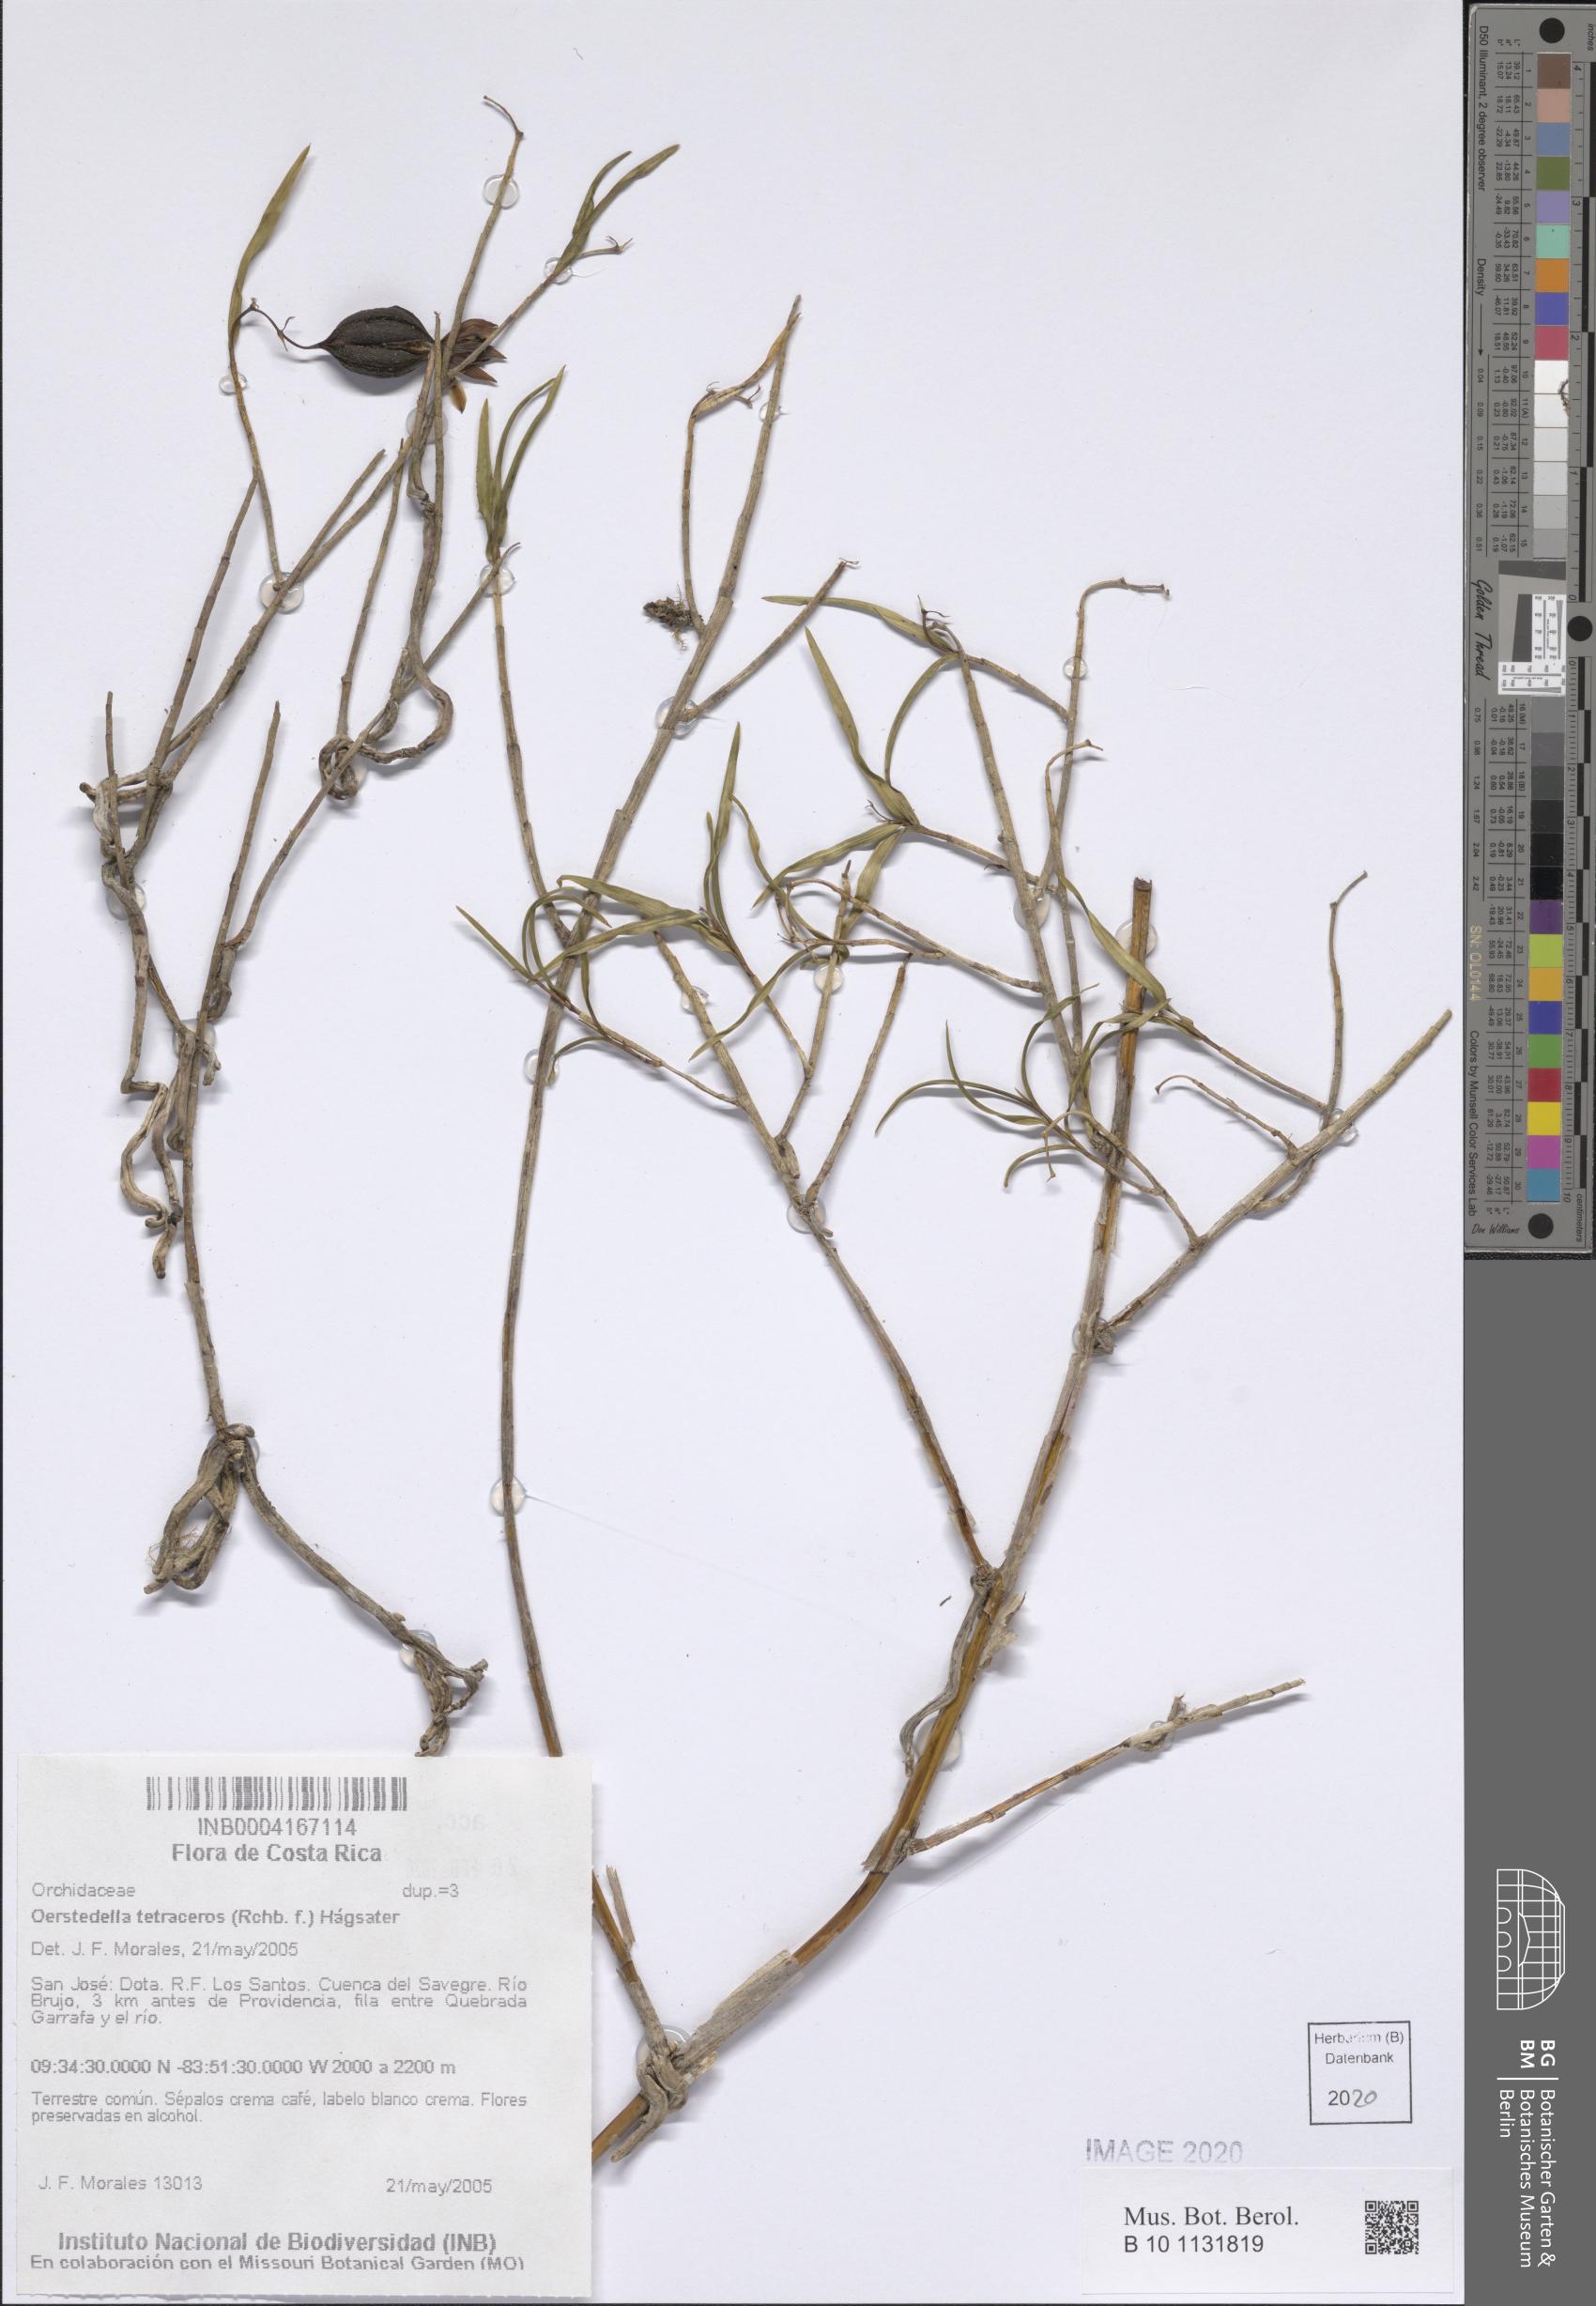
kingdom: Plantae
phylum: Tracheophyta
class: Liliopsida
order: Asparagales
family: Orchidaceae
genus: Epidendrum
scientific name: Epidendrum tetraceros
